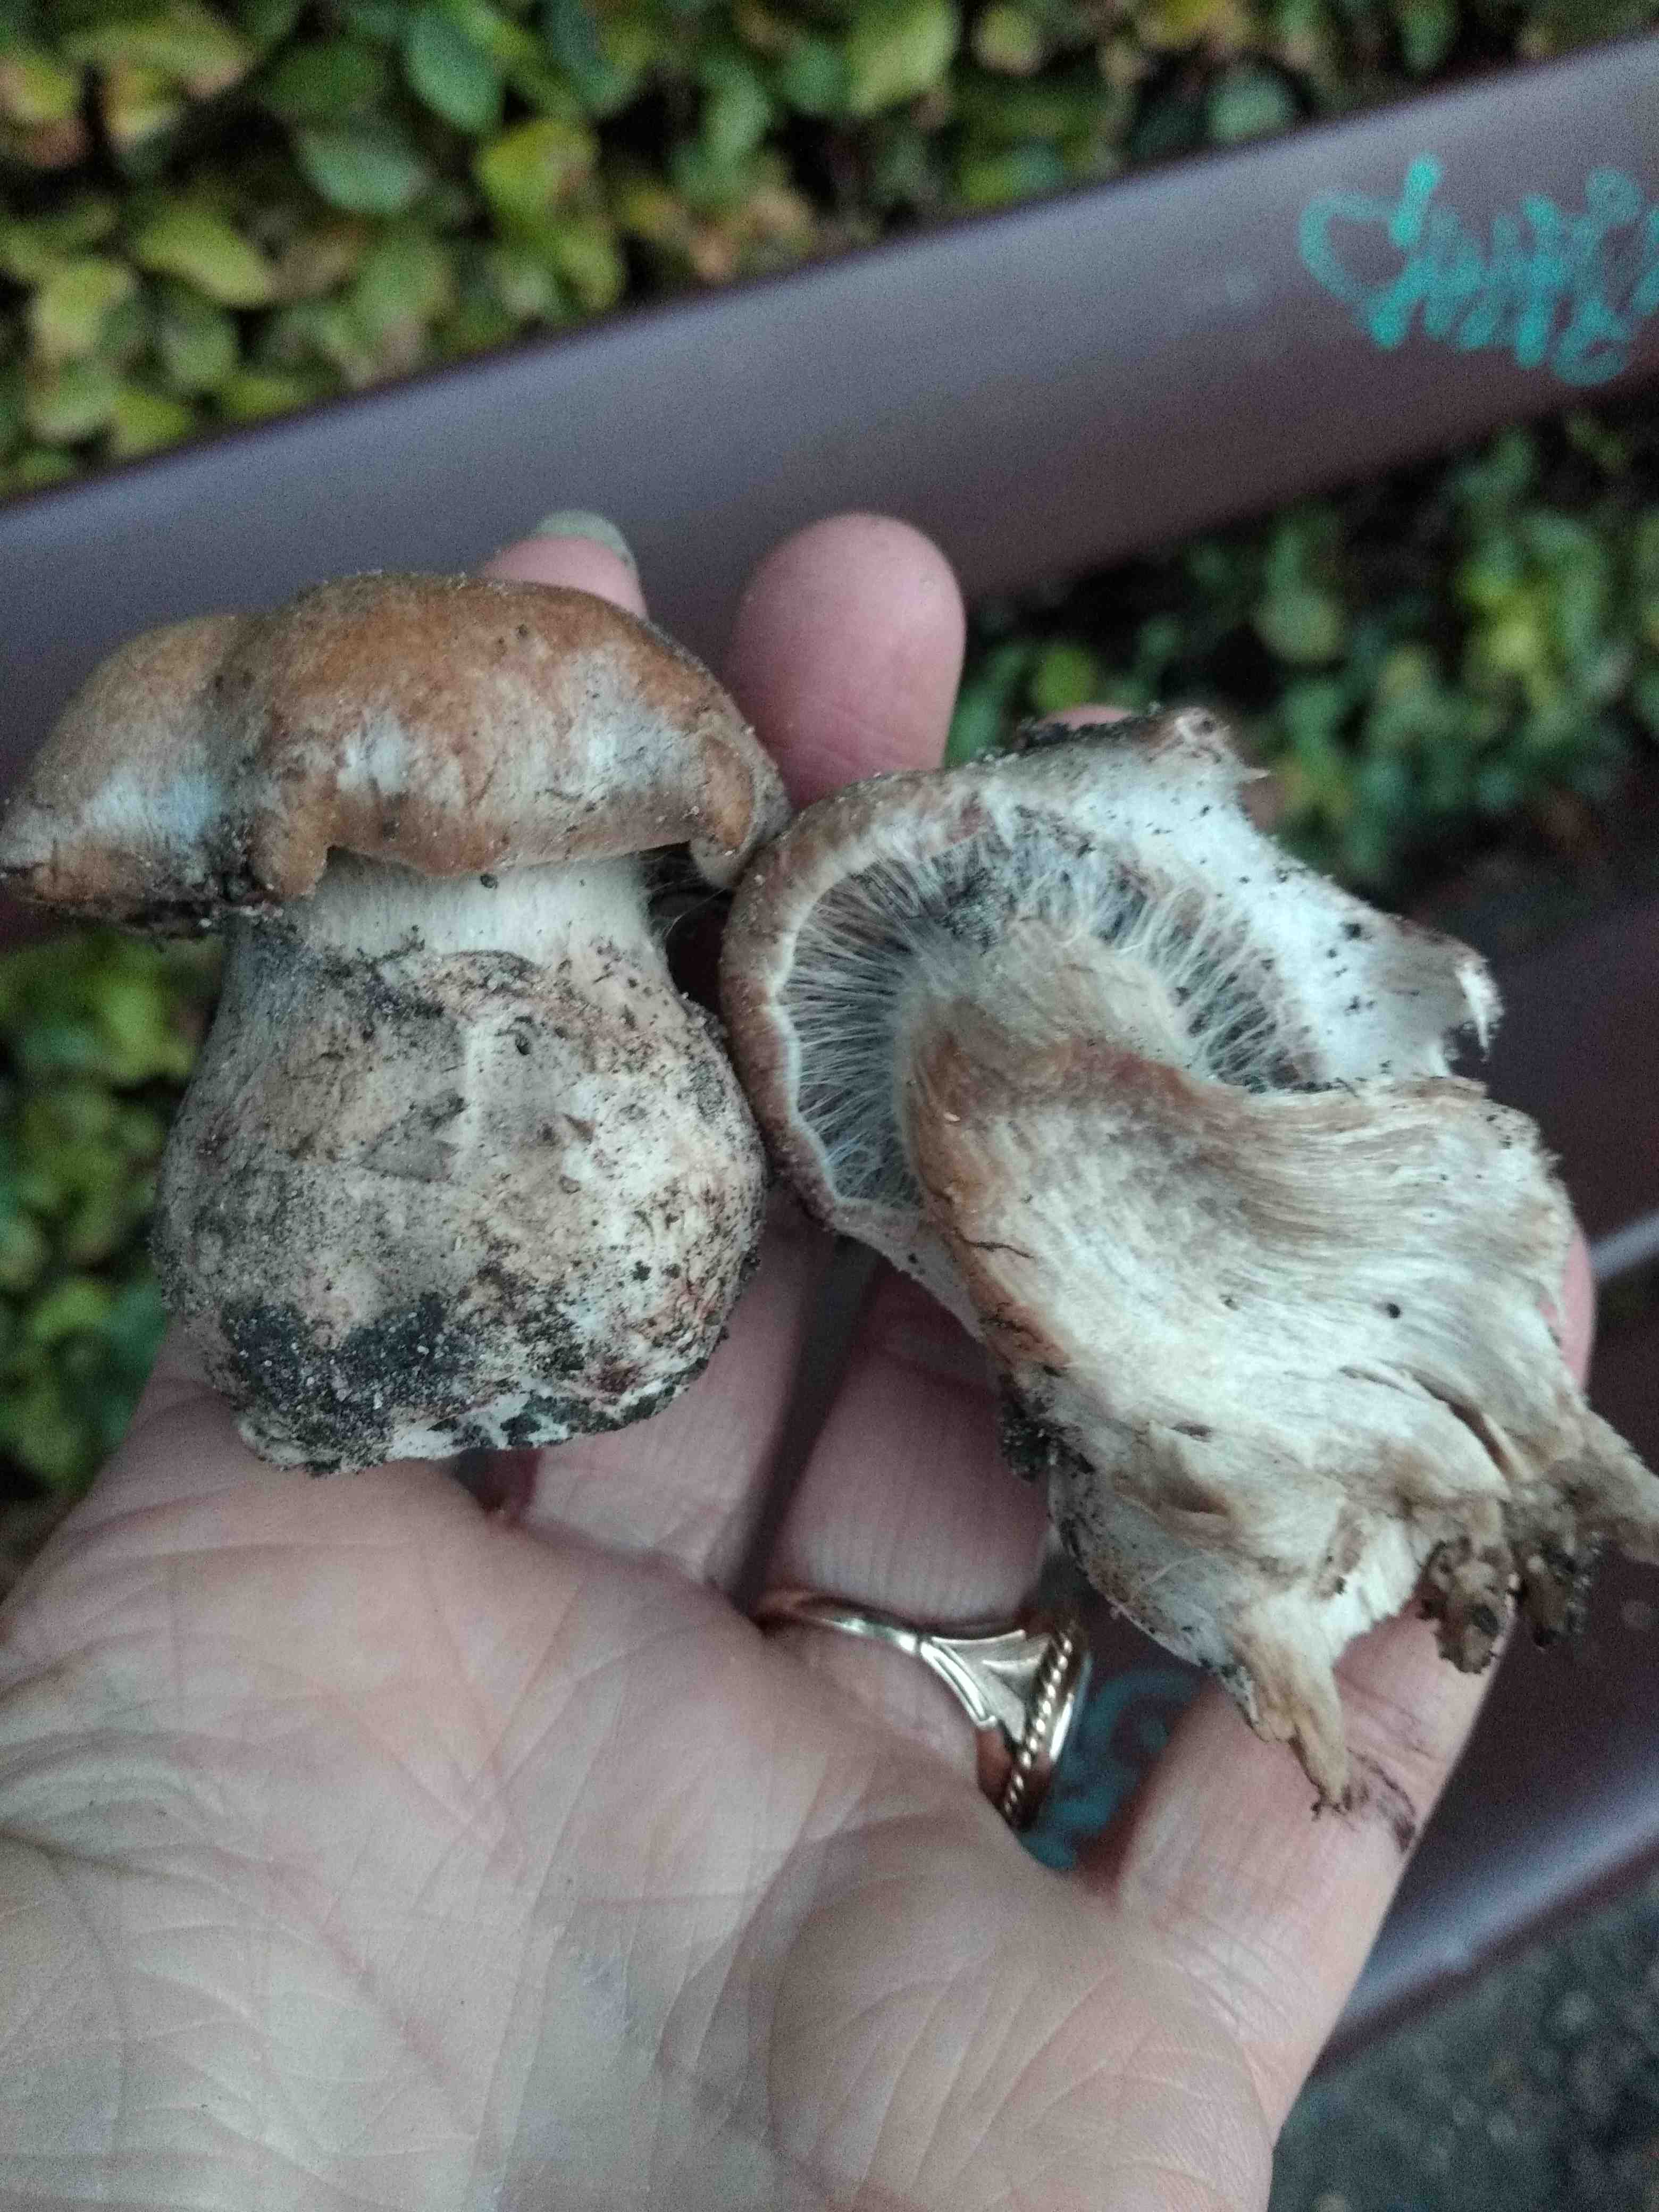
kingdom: Fungi
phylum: Basidiomycota
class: Agaricomycetes
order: Agaricales
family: Cortinariaceae
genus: Cortinarius
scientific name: Cortinarius
